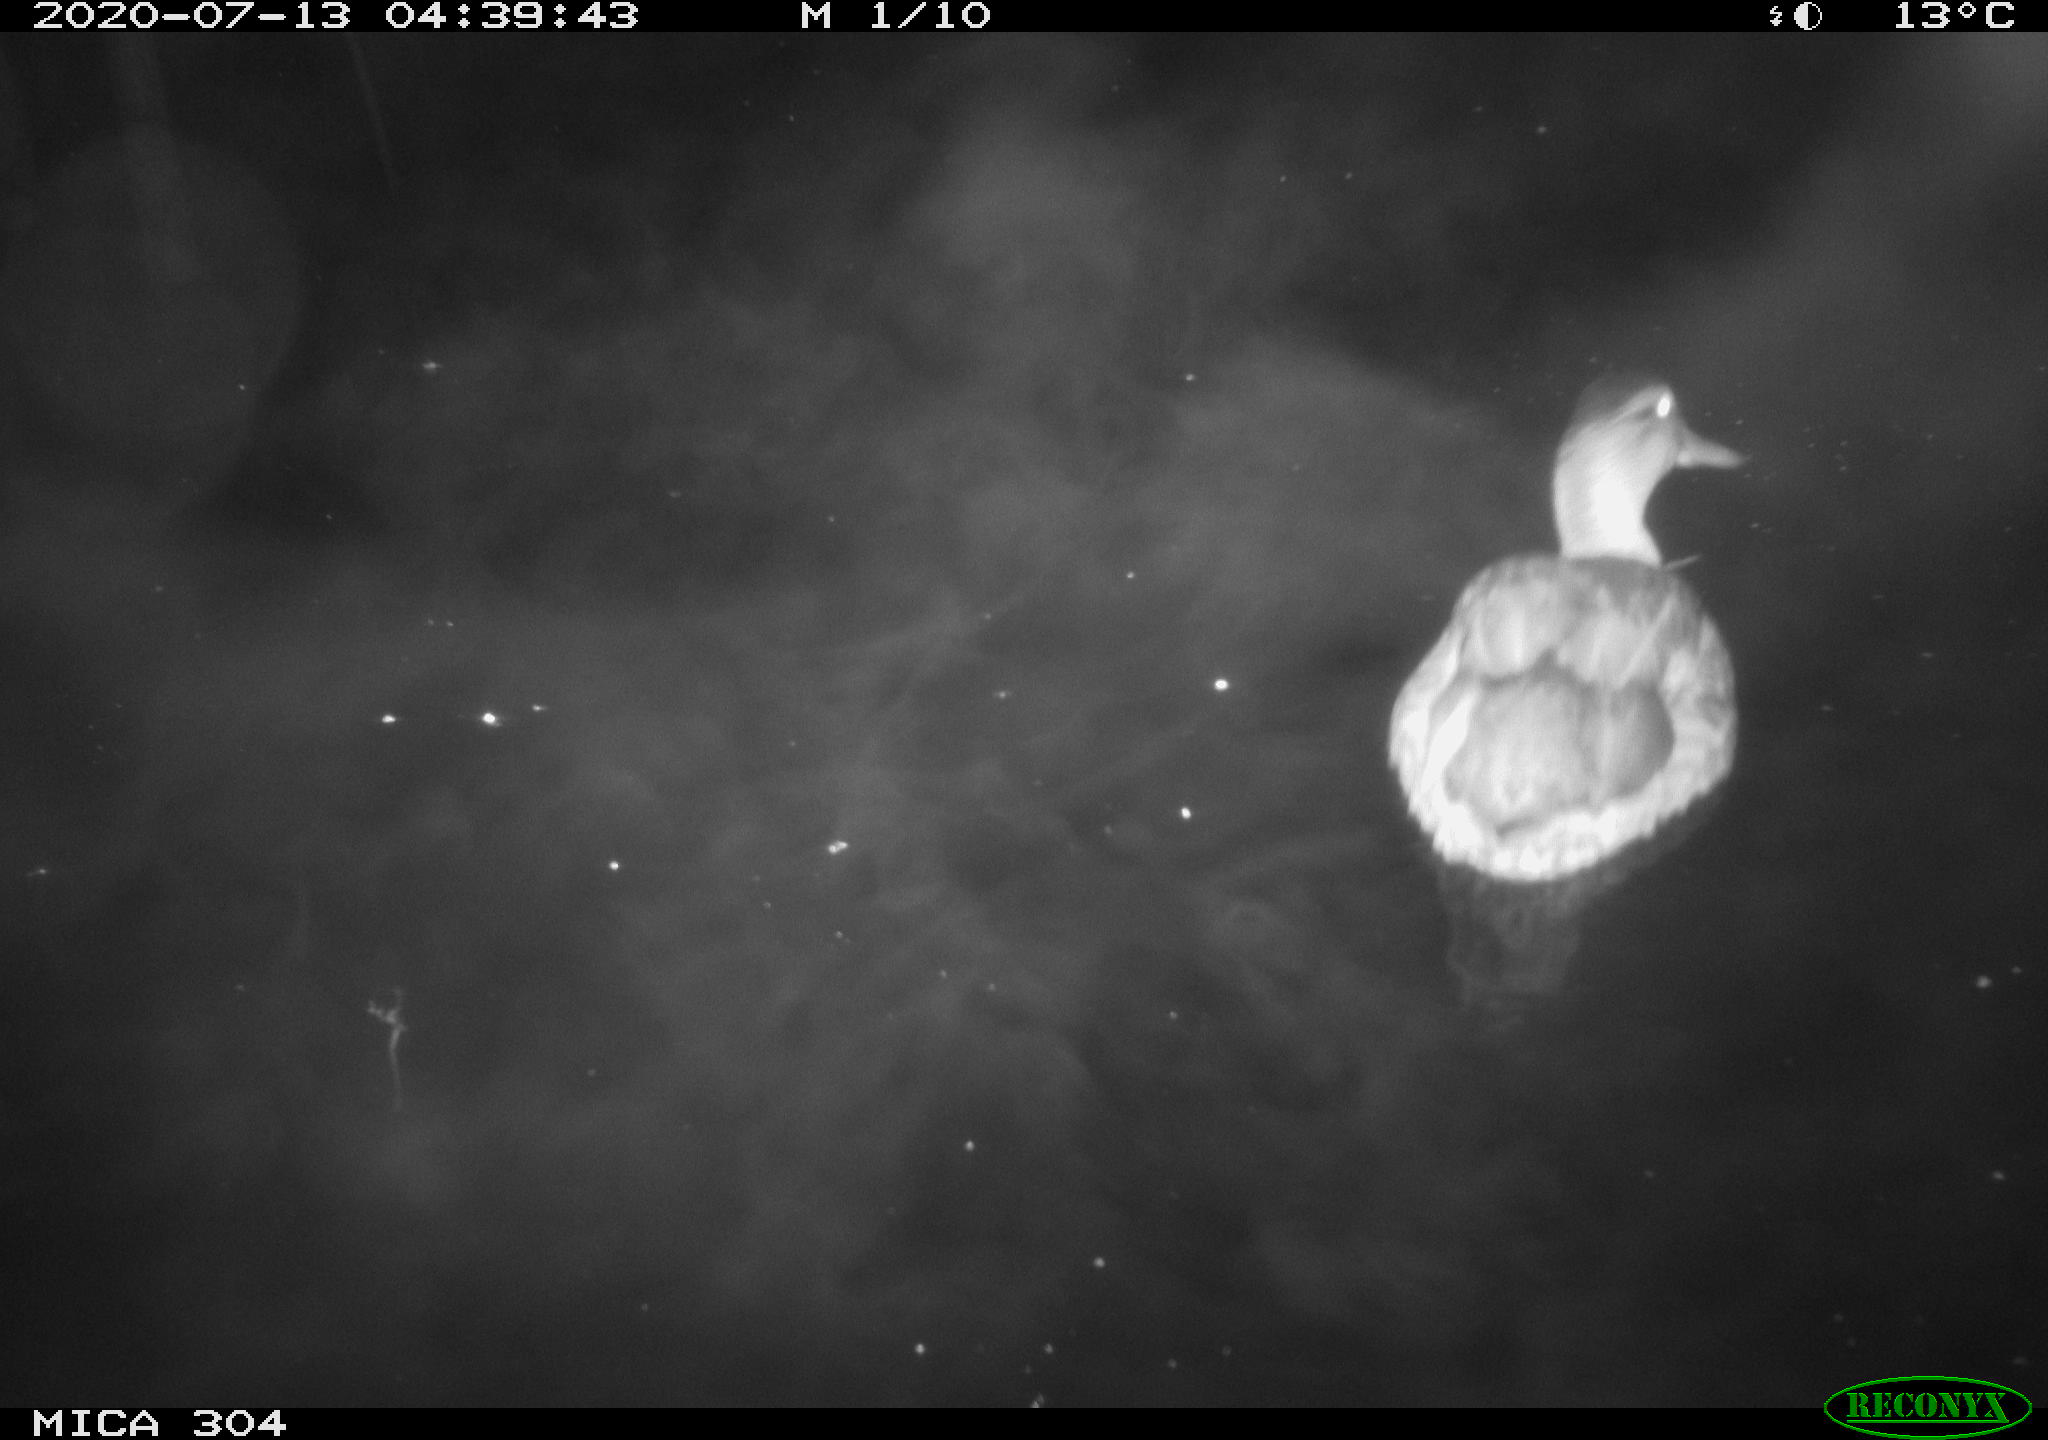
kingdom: Animalia
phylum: Chordata
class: Aves
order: Anseriformes
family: Anatidae
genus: Anas
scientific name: Anas platyrhynchos
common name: Mallard
